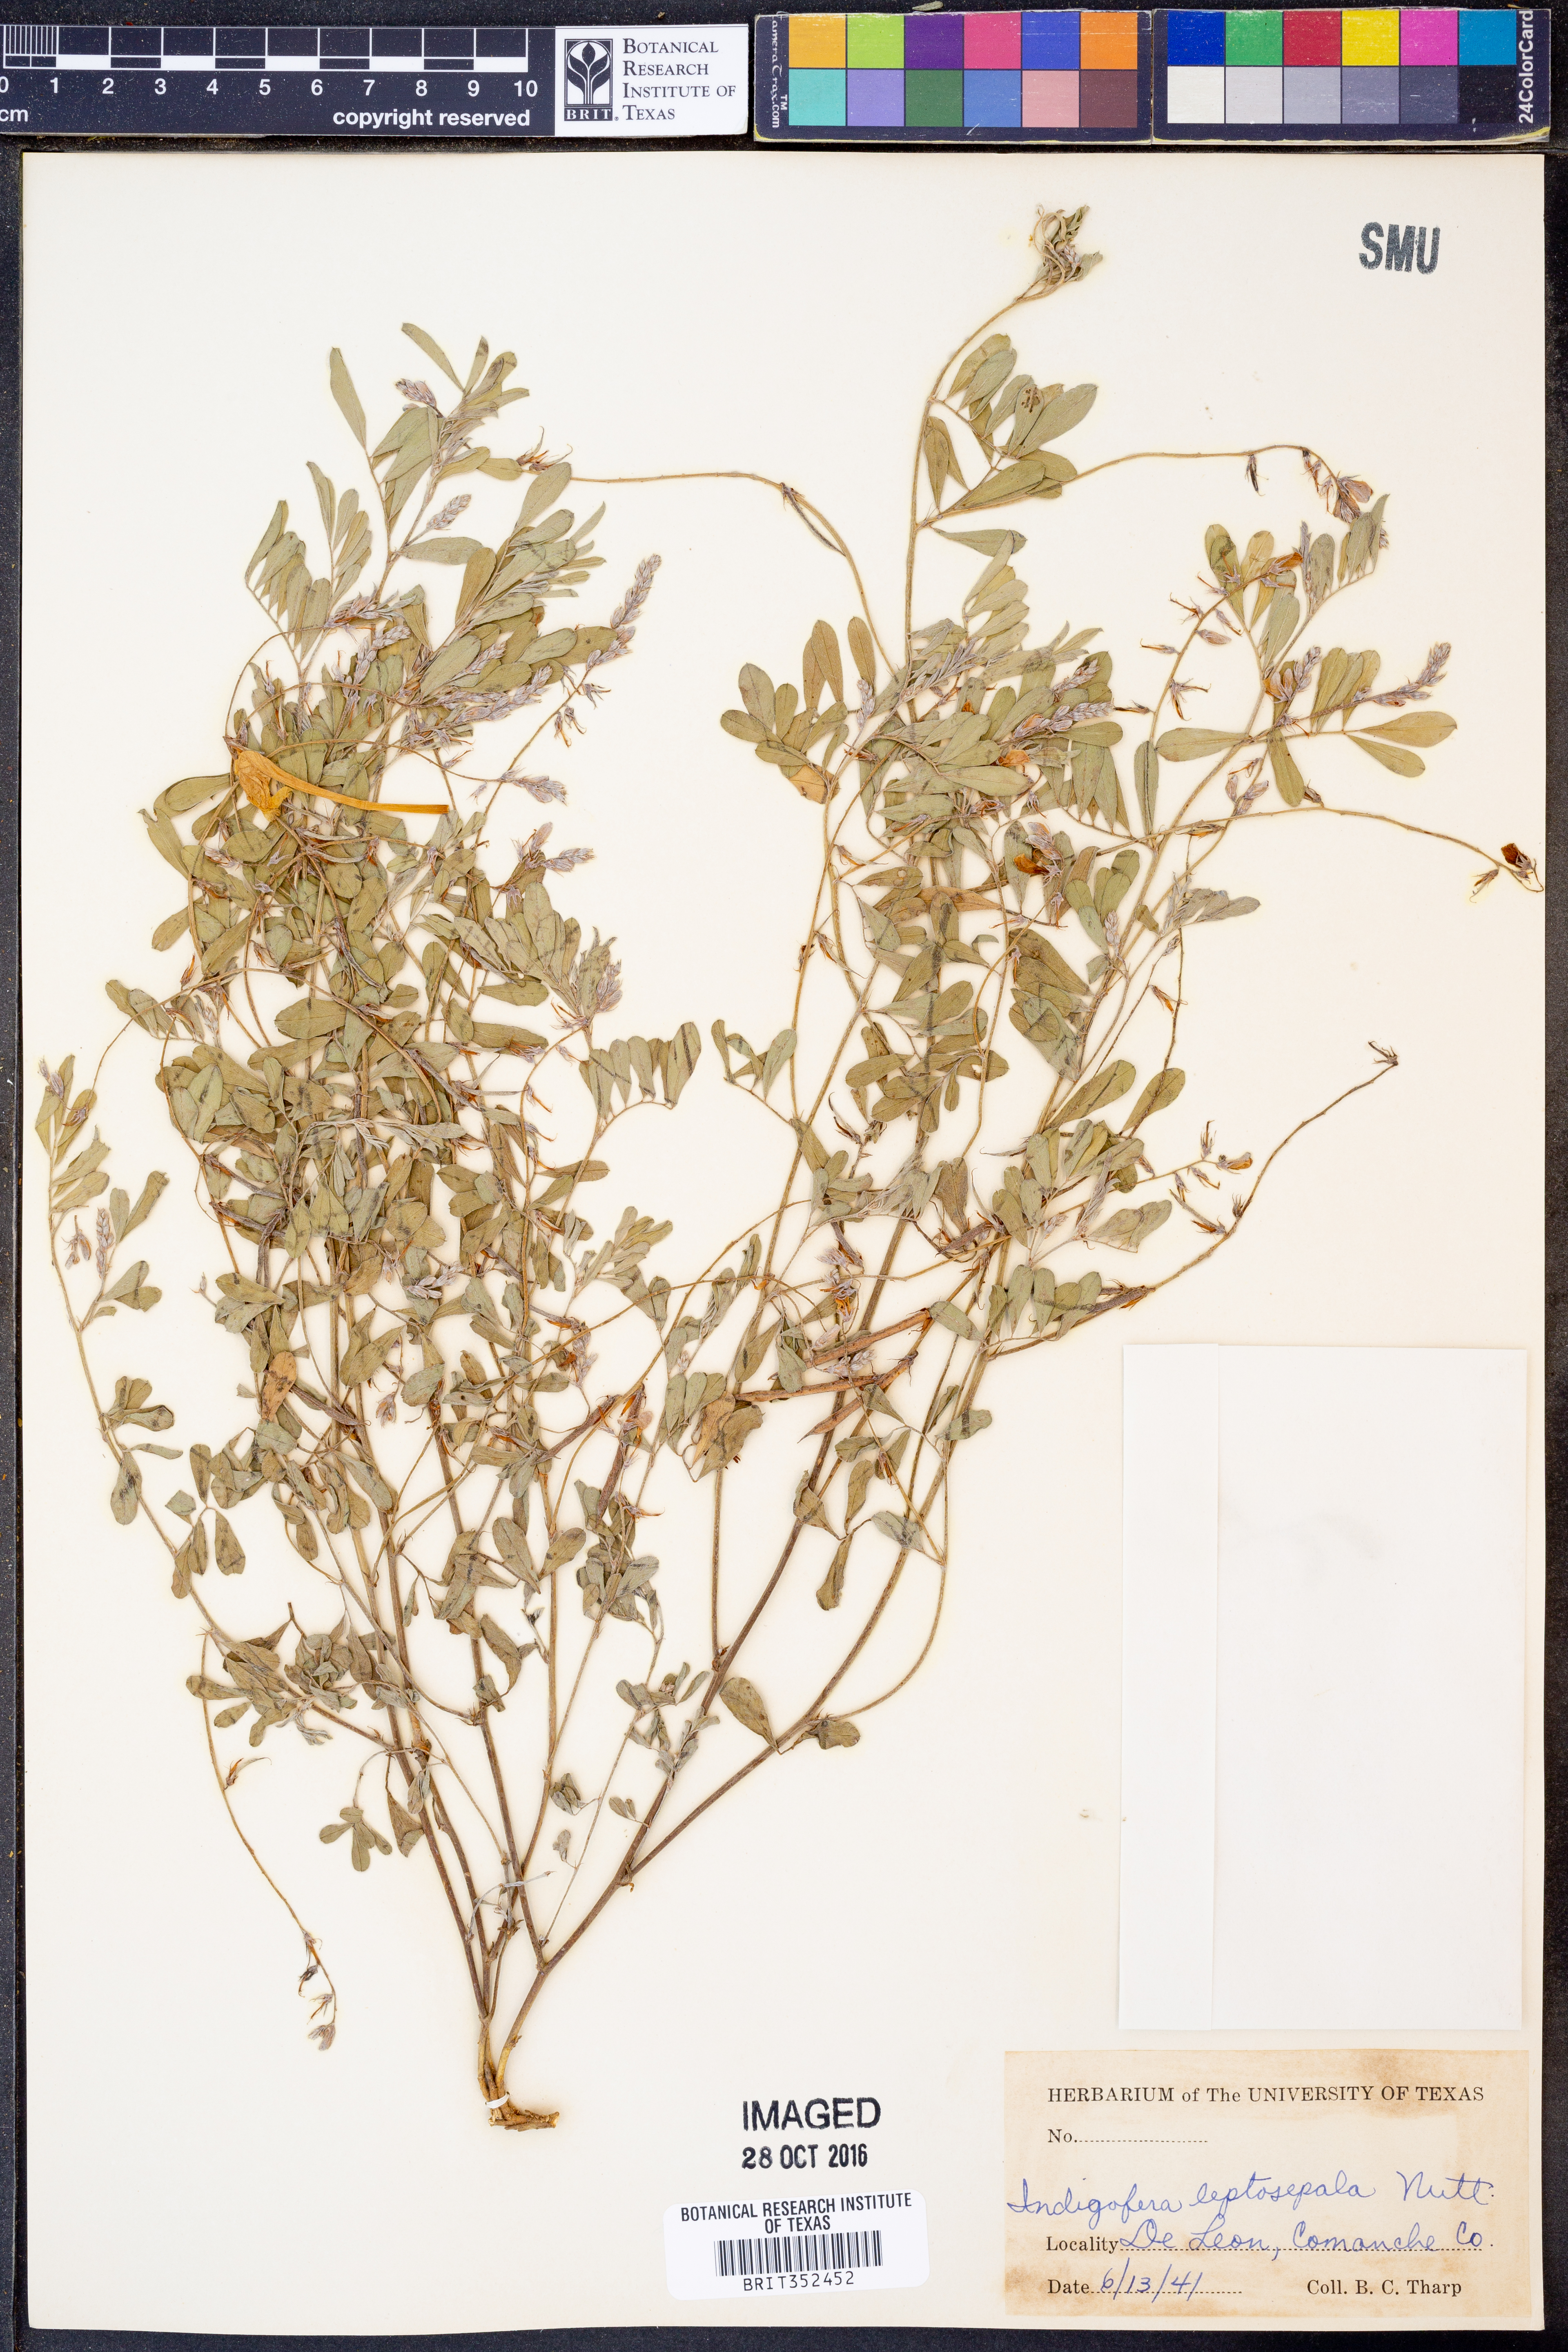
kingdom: Plantae
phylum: Tracheophyta
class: Magnoliopsida
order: Fabales
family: Fabaceae
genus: Indigofera
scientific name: Indigofera argutidens
